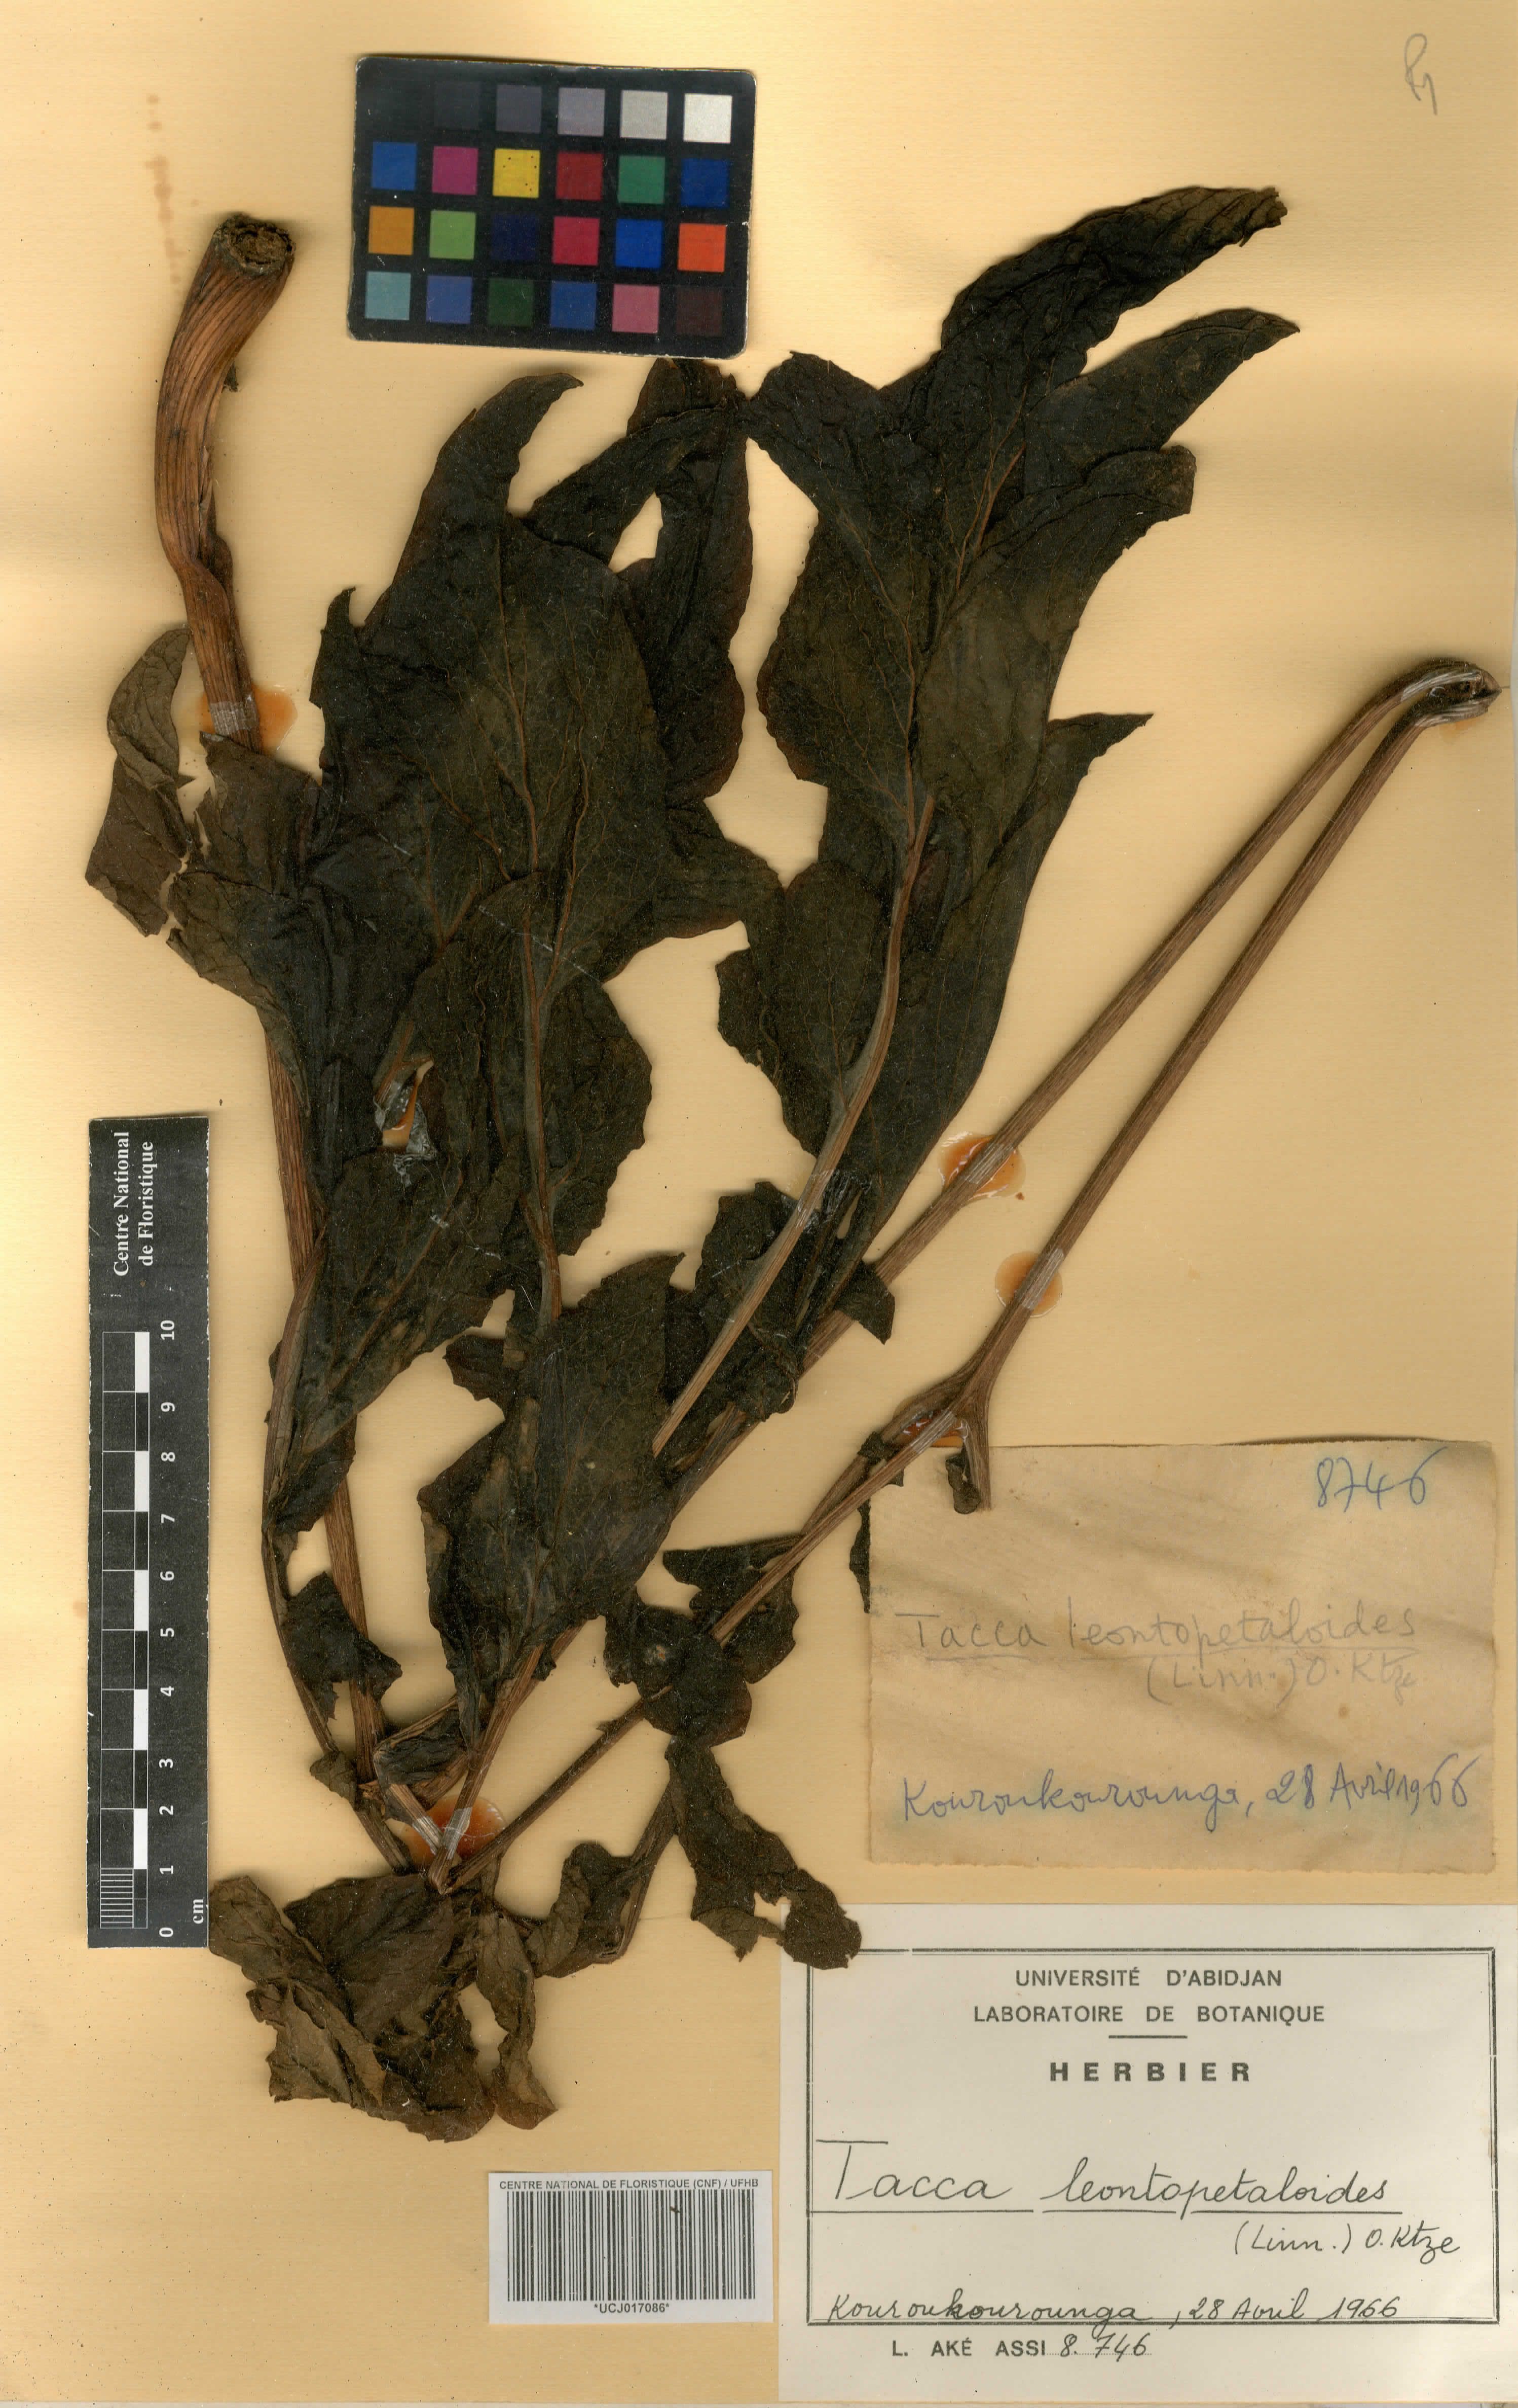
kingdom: Plantae
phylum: Tracheophyta
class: Liliopsida
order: Dioscoreales
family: Dioscoreaceae
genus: Tacca
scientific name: Tacca leontopetaloides
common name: Arrowroot
